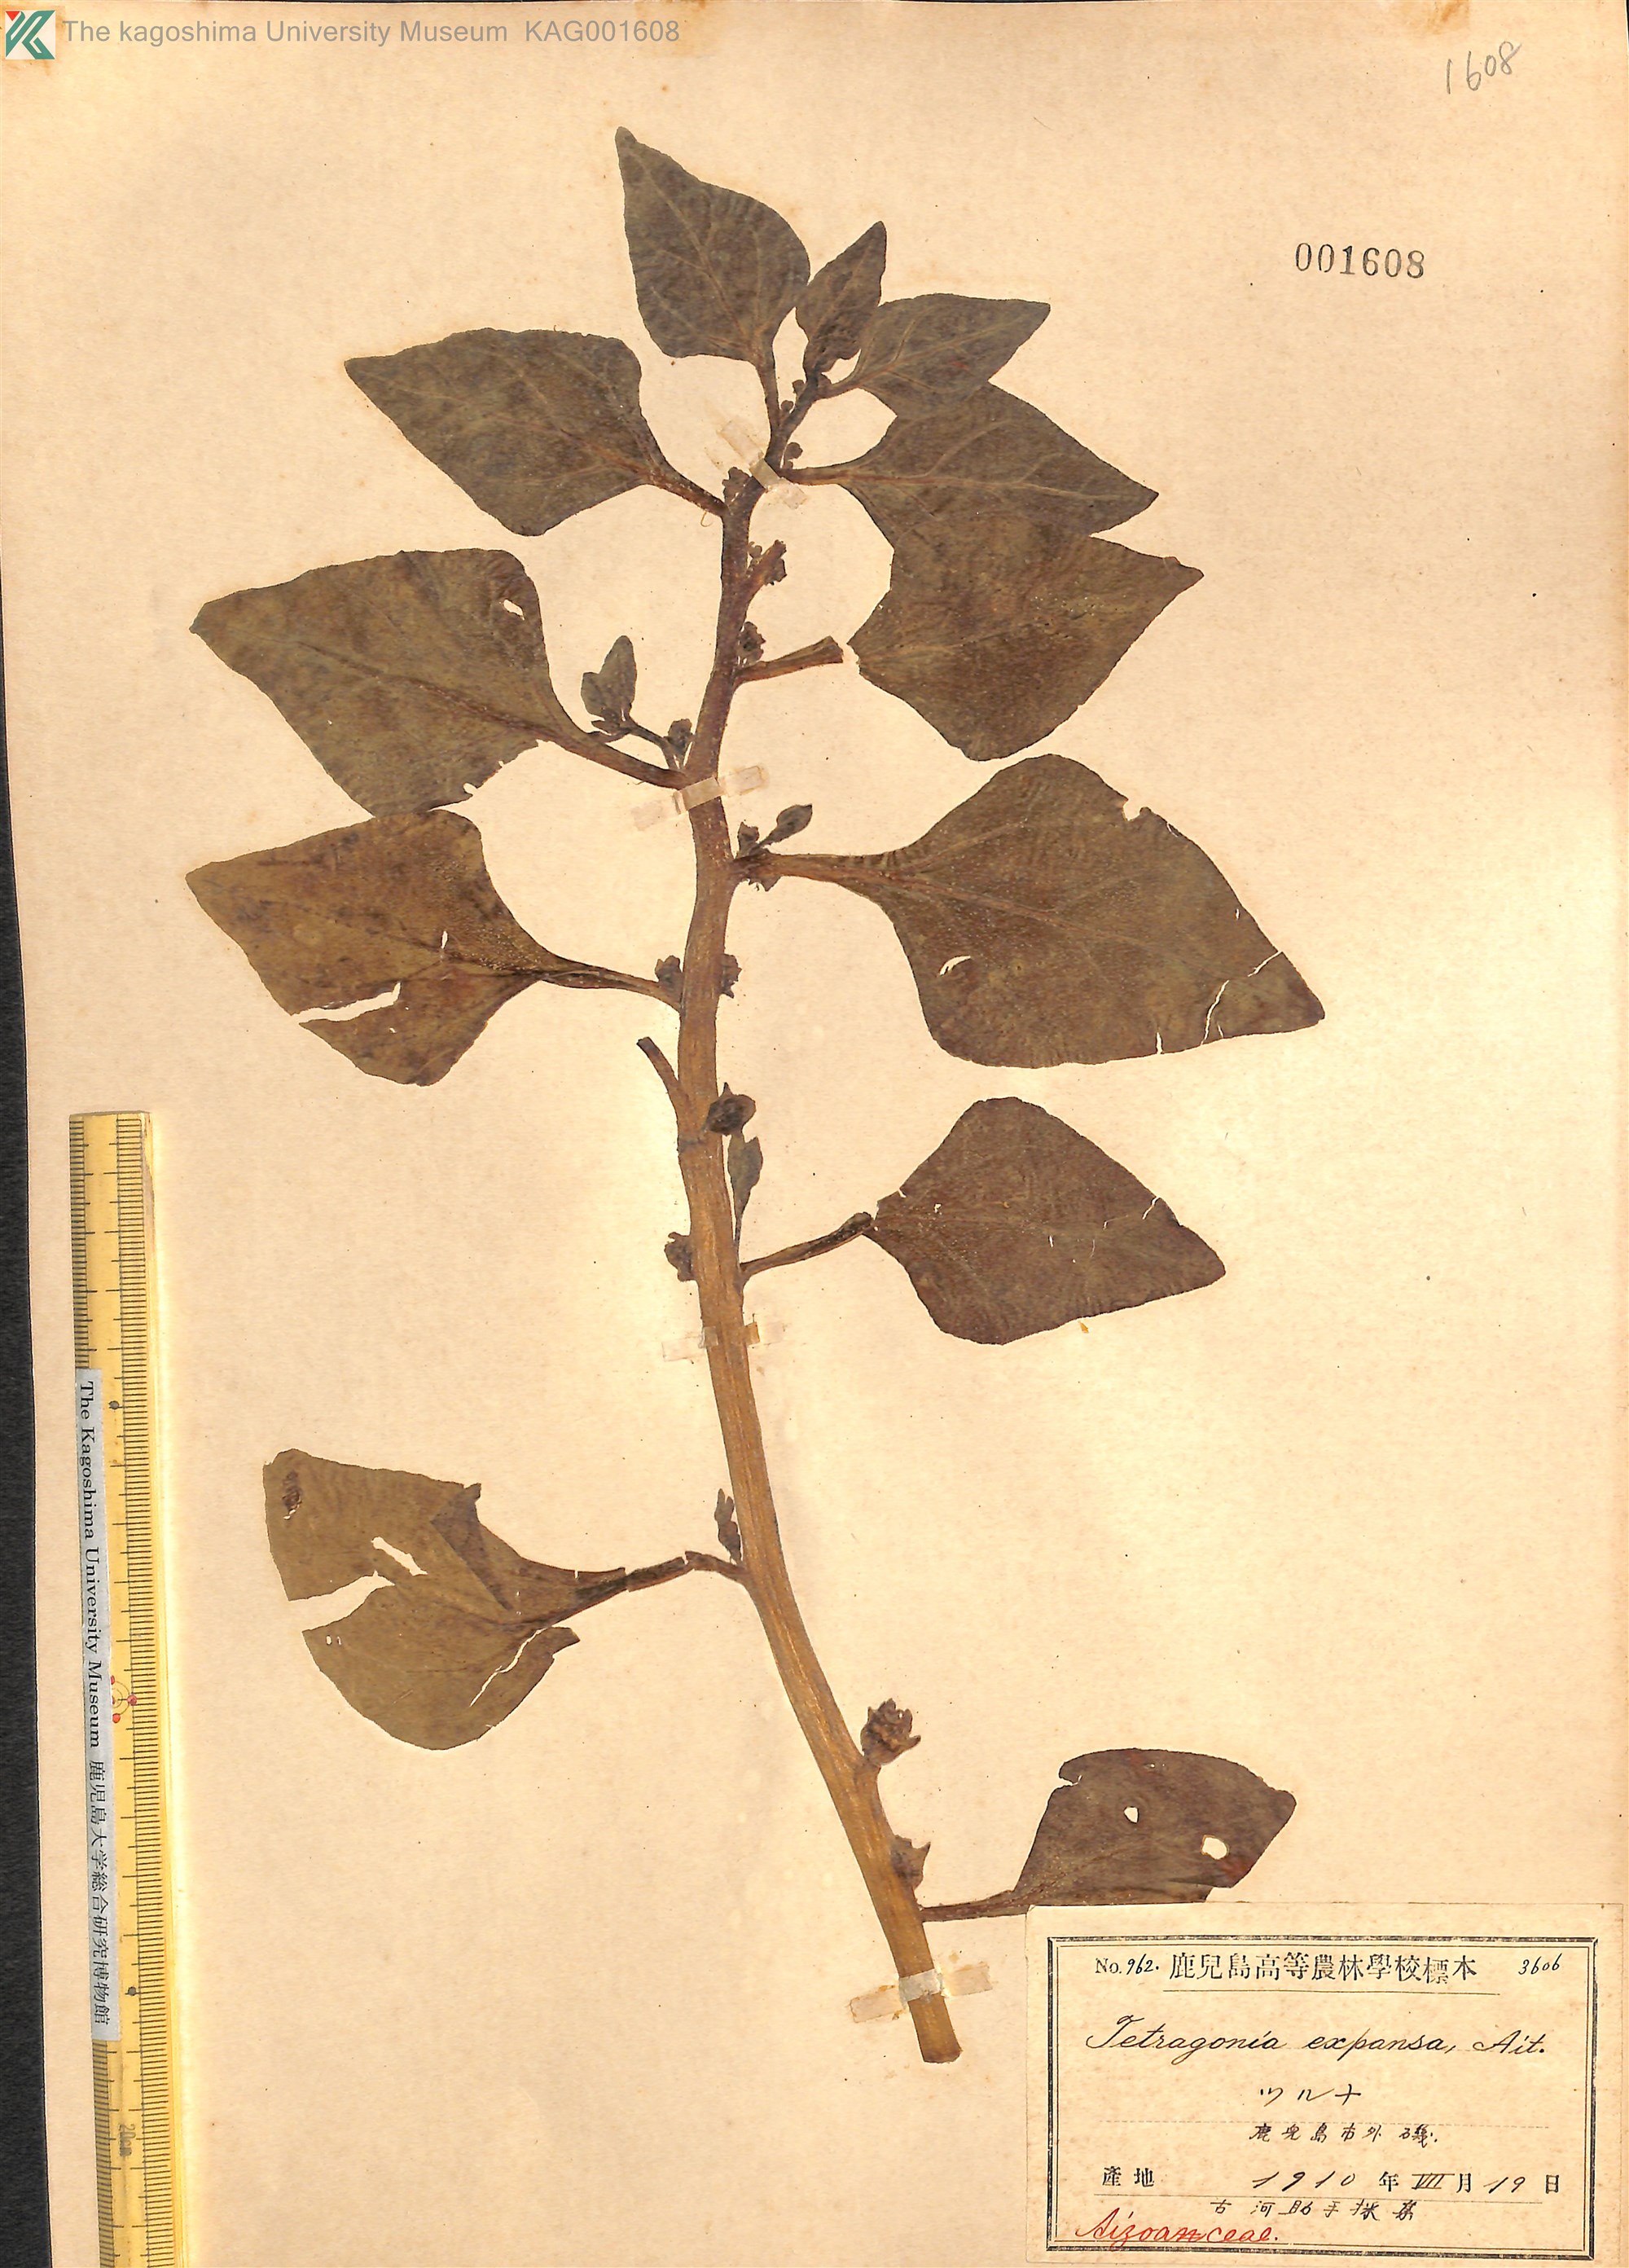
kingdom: Plantae
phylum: Tracheophyta
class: Magnoliopsida
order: Caryophyllales
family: Aizoaceae
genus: Tetragonia
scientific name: Tetragonia tetragonoides
